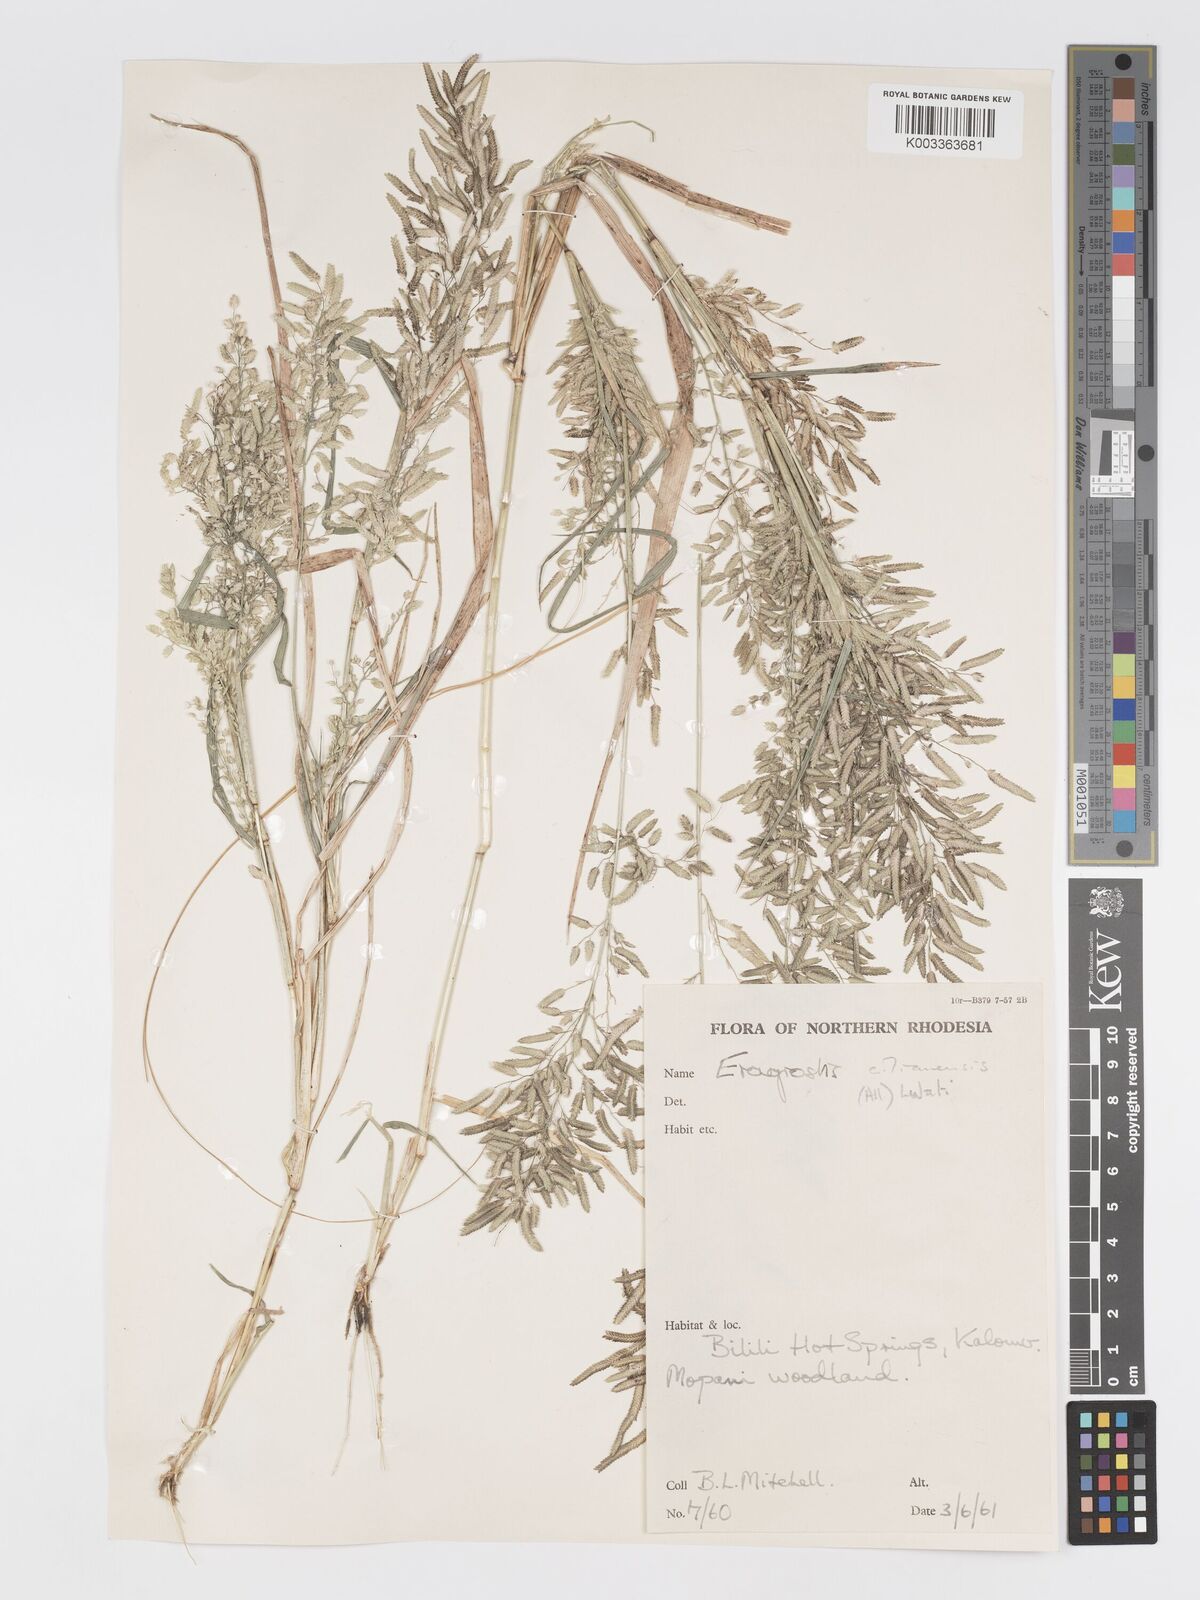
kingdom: Plantae
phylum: Tracheophyta
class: Liliopsida
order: Poales
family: Poaceae
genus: Eragrostis
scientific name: Eragrostis cilianensis
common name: Stinkgrass
